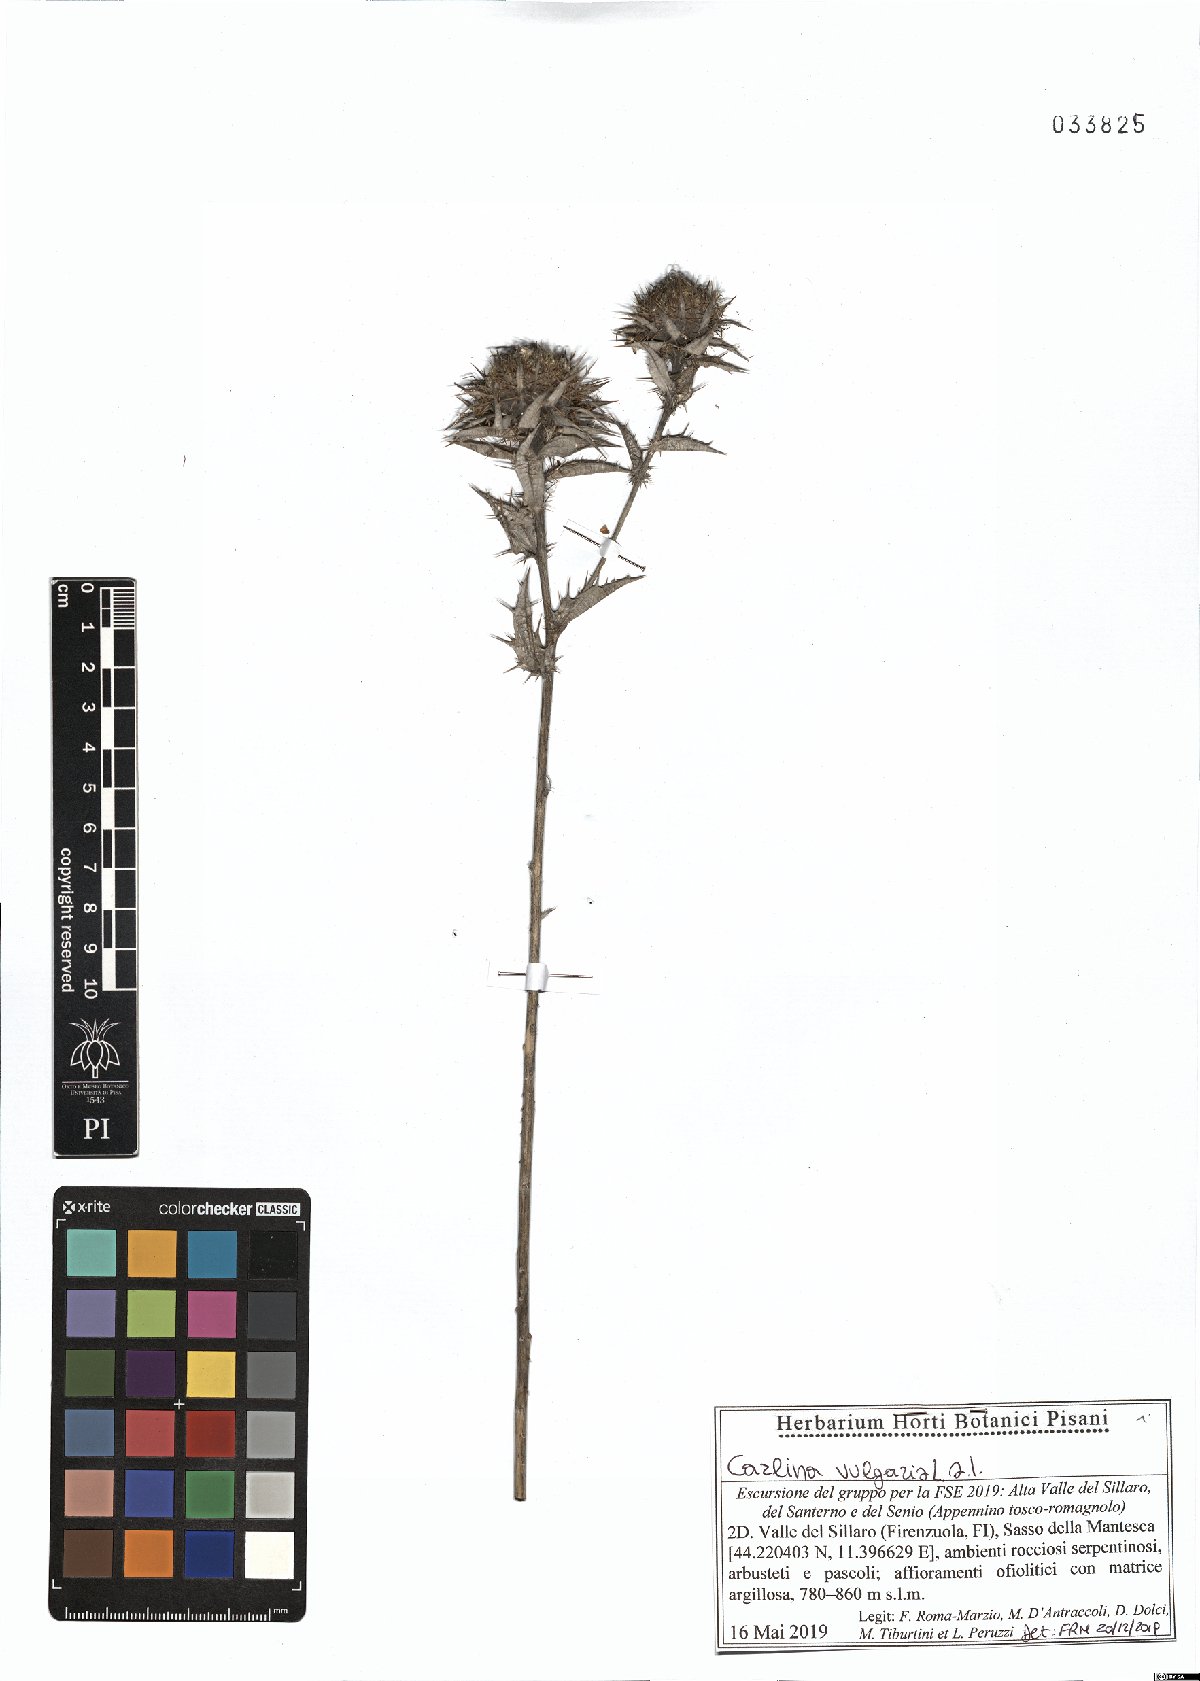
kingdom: Plantae
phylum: Tracheophyta
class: Magnoliopsida
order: Asterales
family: Asteraceae
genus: Carlina
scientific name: Carlina vulgaris
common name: Carline thistle
